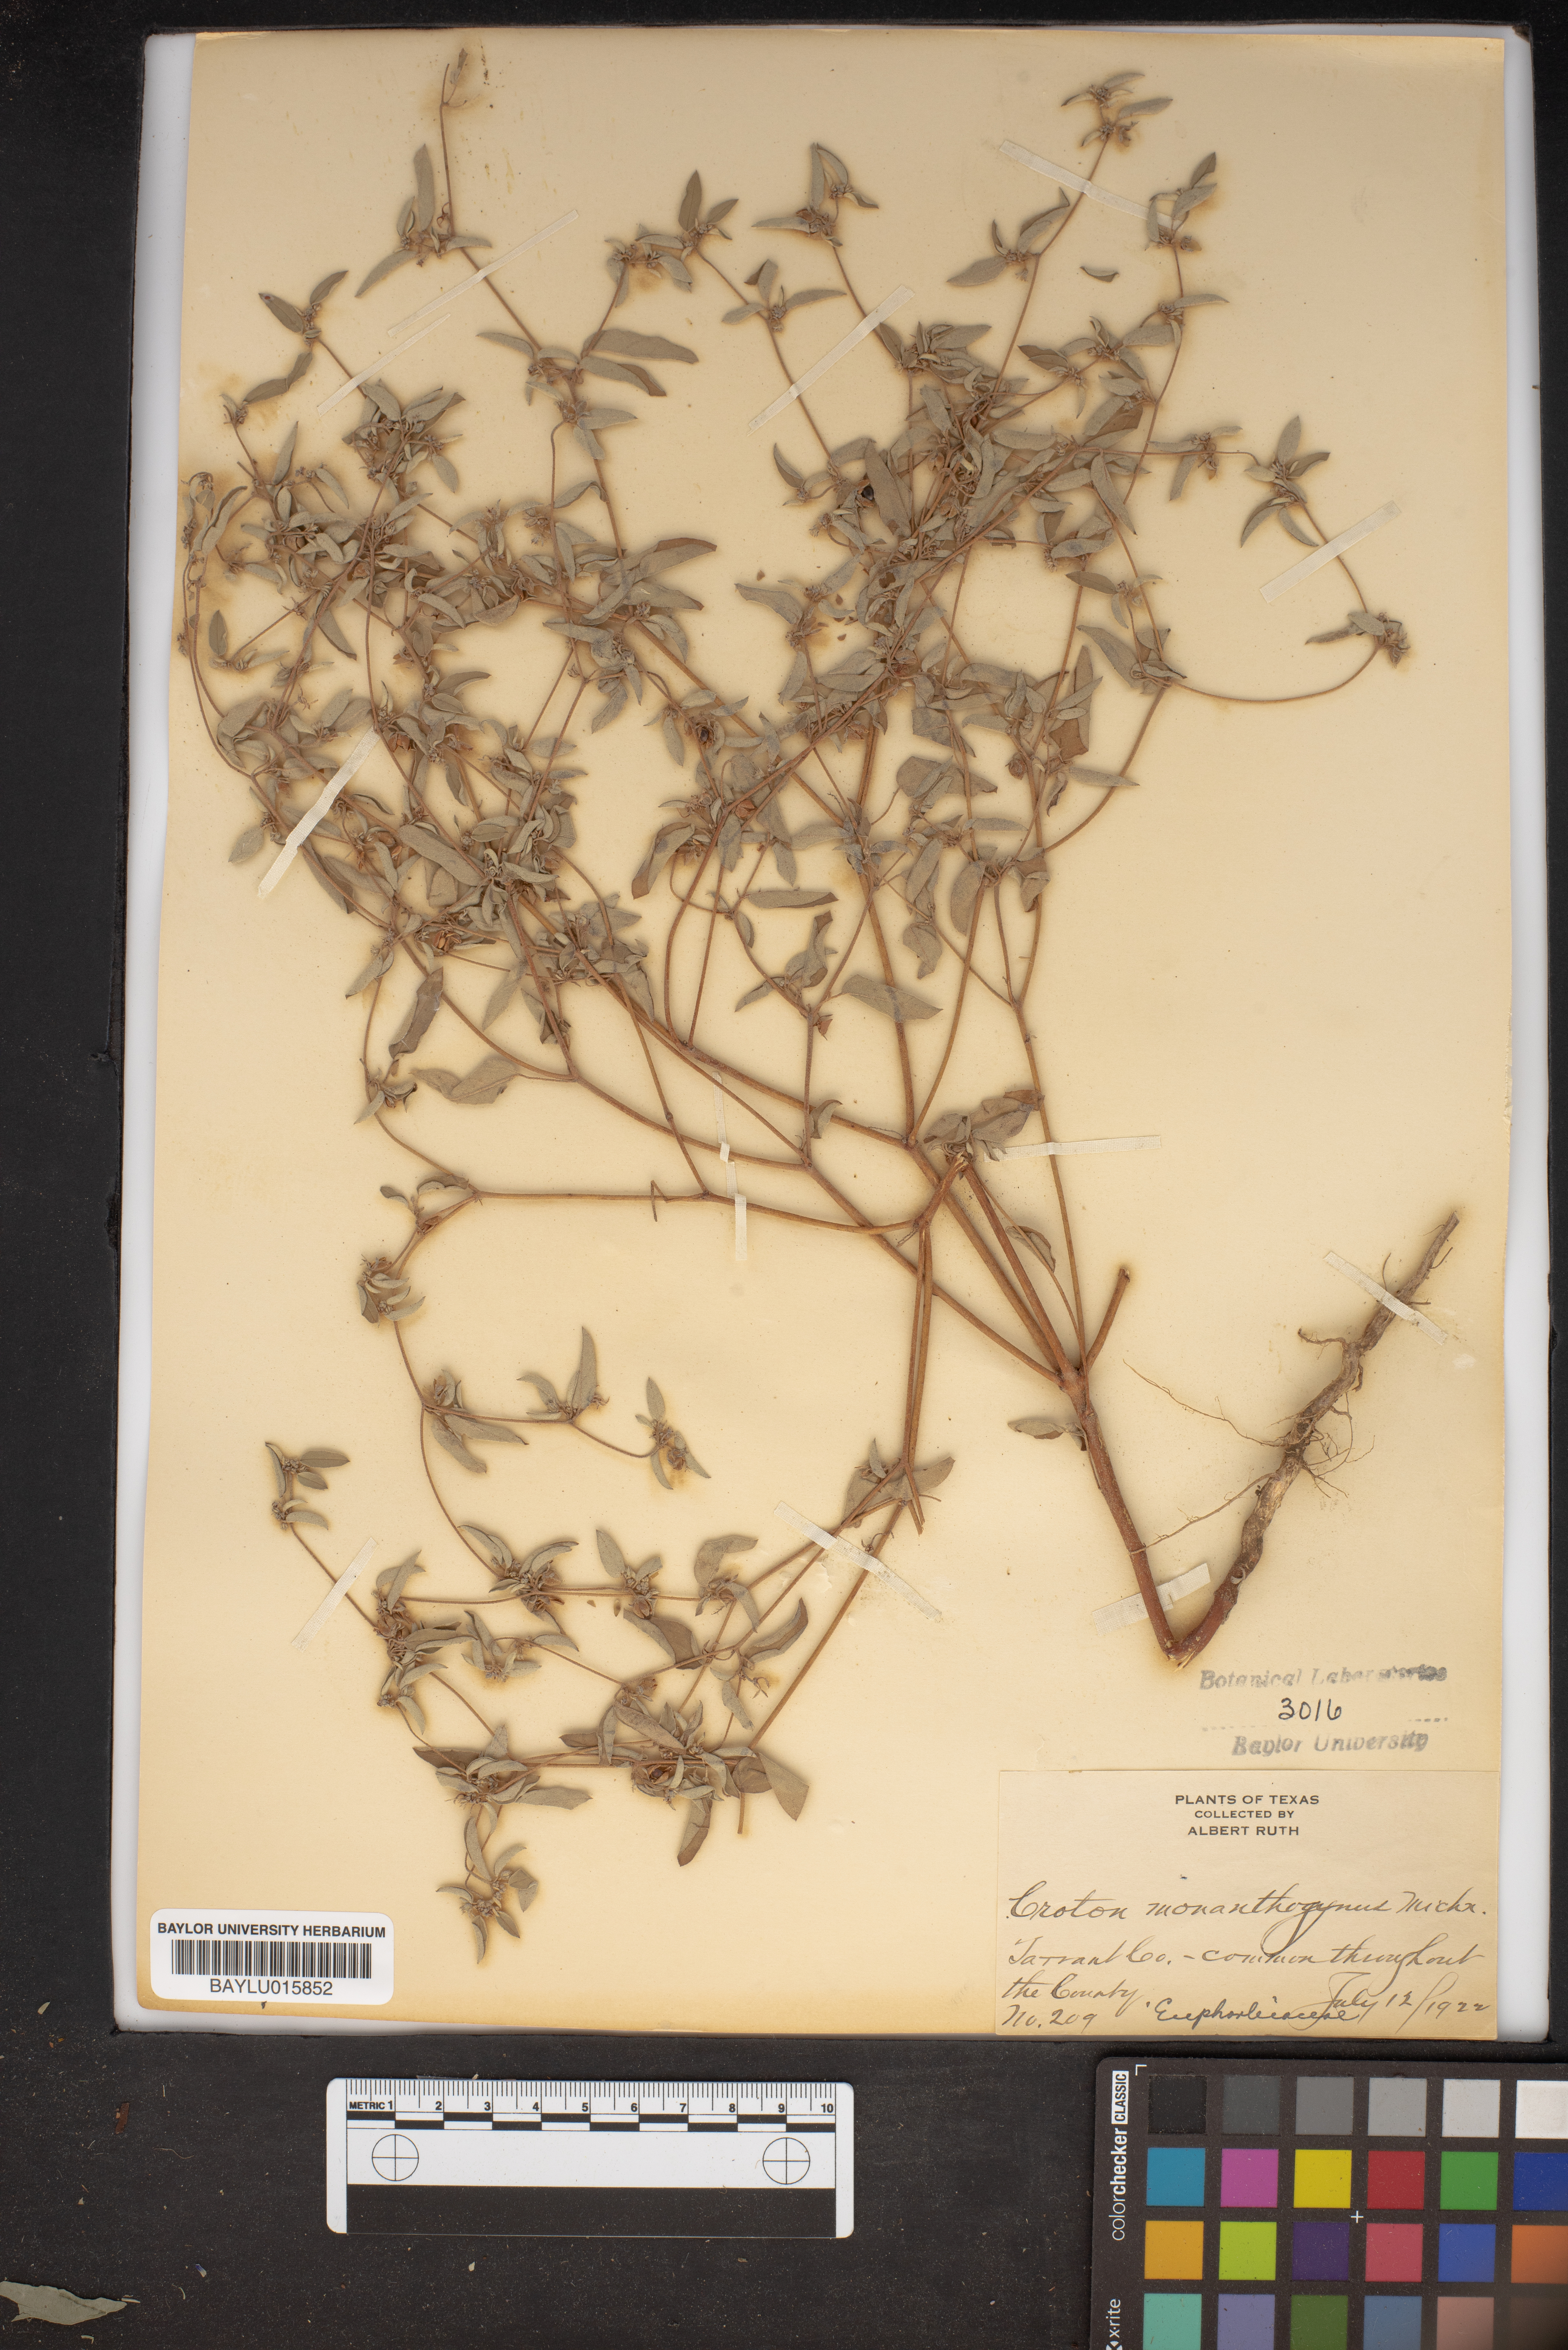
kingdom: Plantae
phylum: Tracheophyta
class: Magnoliopsida
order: Malpighiales
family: Euphorbiaceae
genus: Croton
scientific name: Croton monanthogynus
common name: One-seed croton
